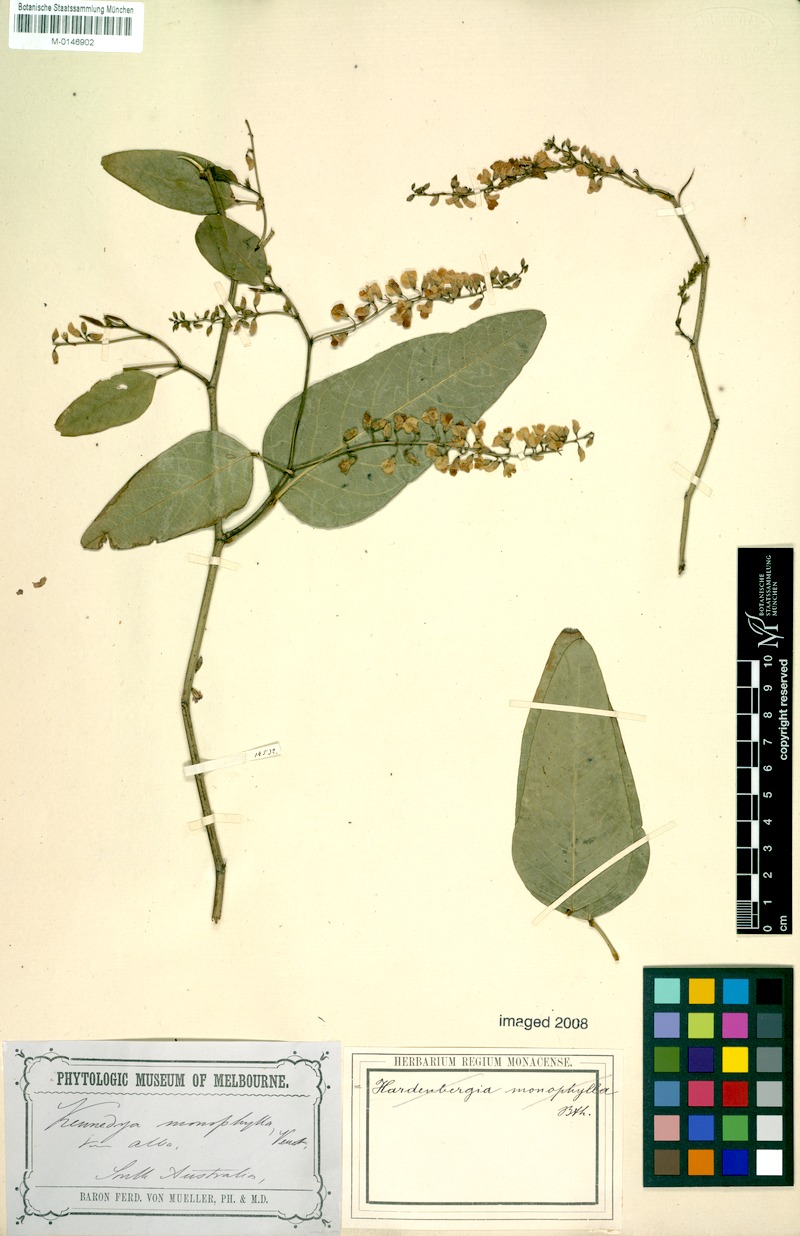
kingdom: Plantae
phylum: Tracheophyta
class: Magnoliopsida
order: Fabales
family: Fabaceae
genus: Hardenbergia
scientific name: Hardenbergia violacea
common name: Coral-pea
